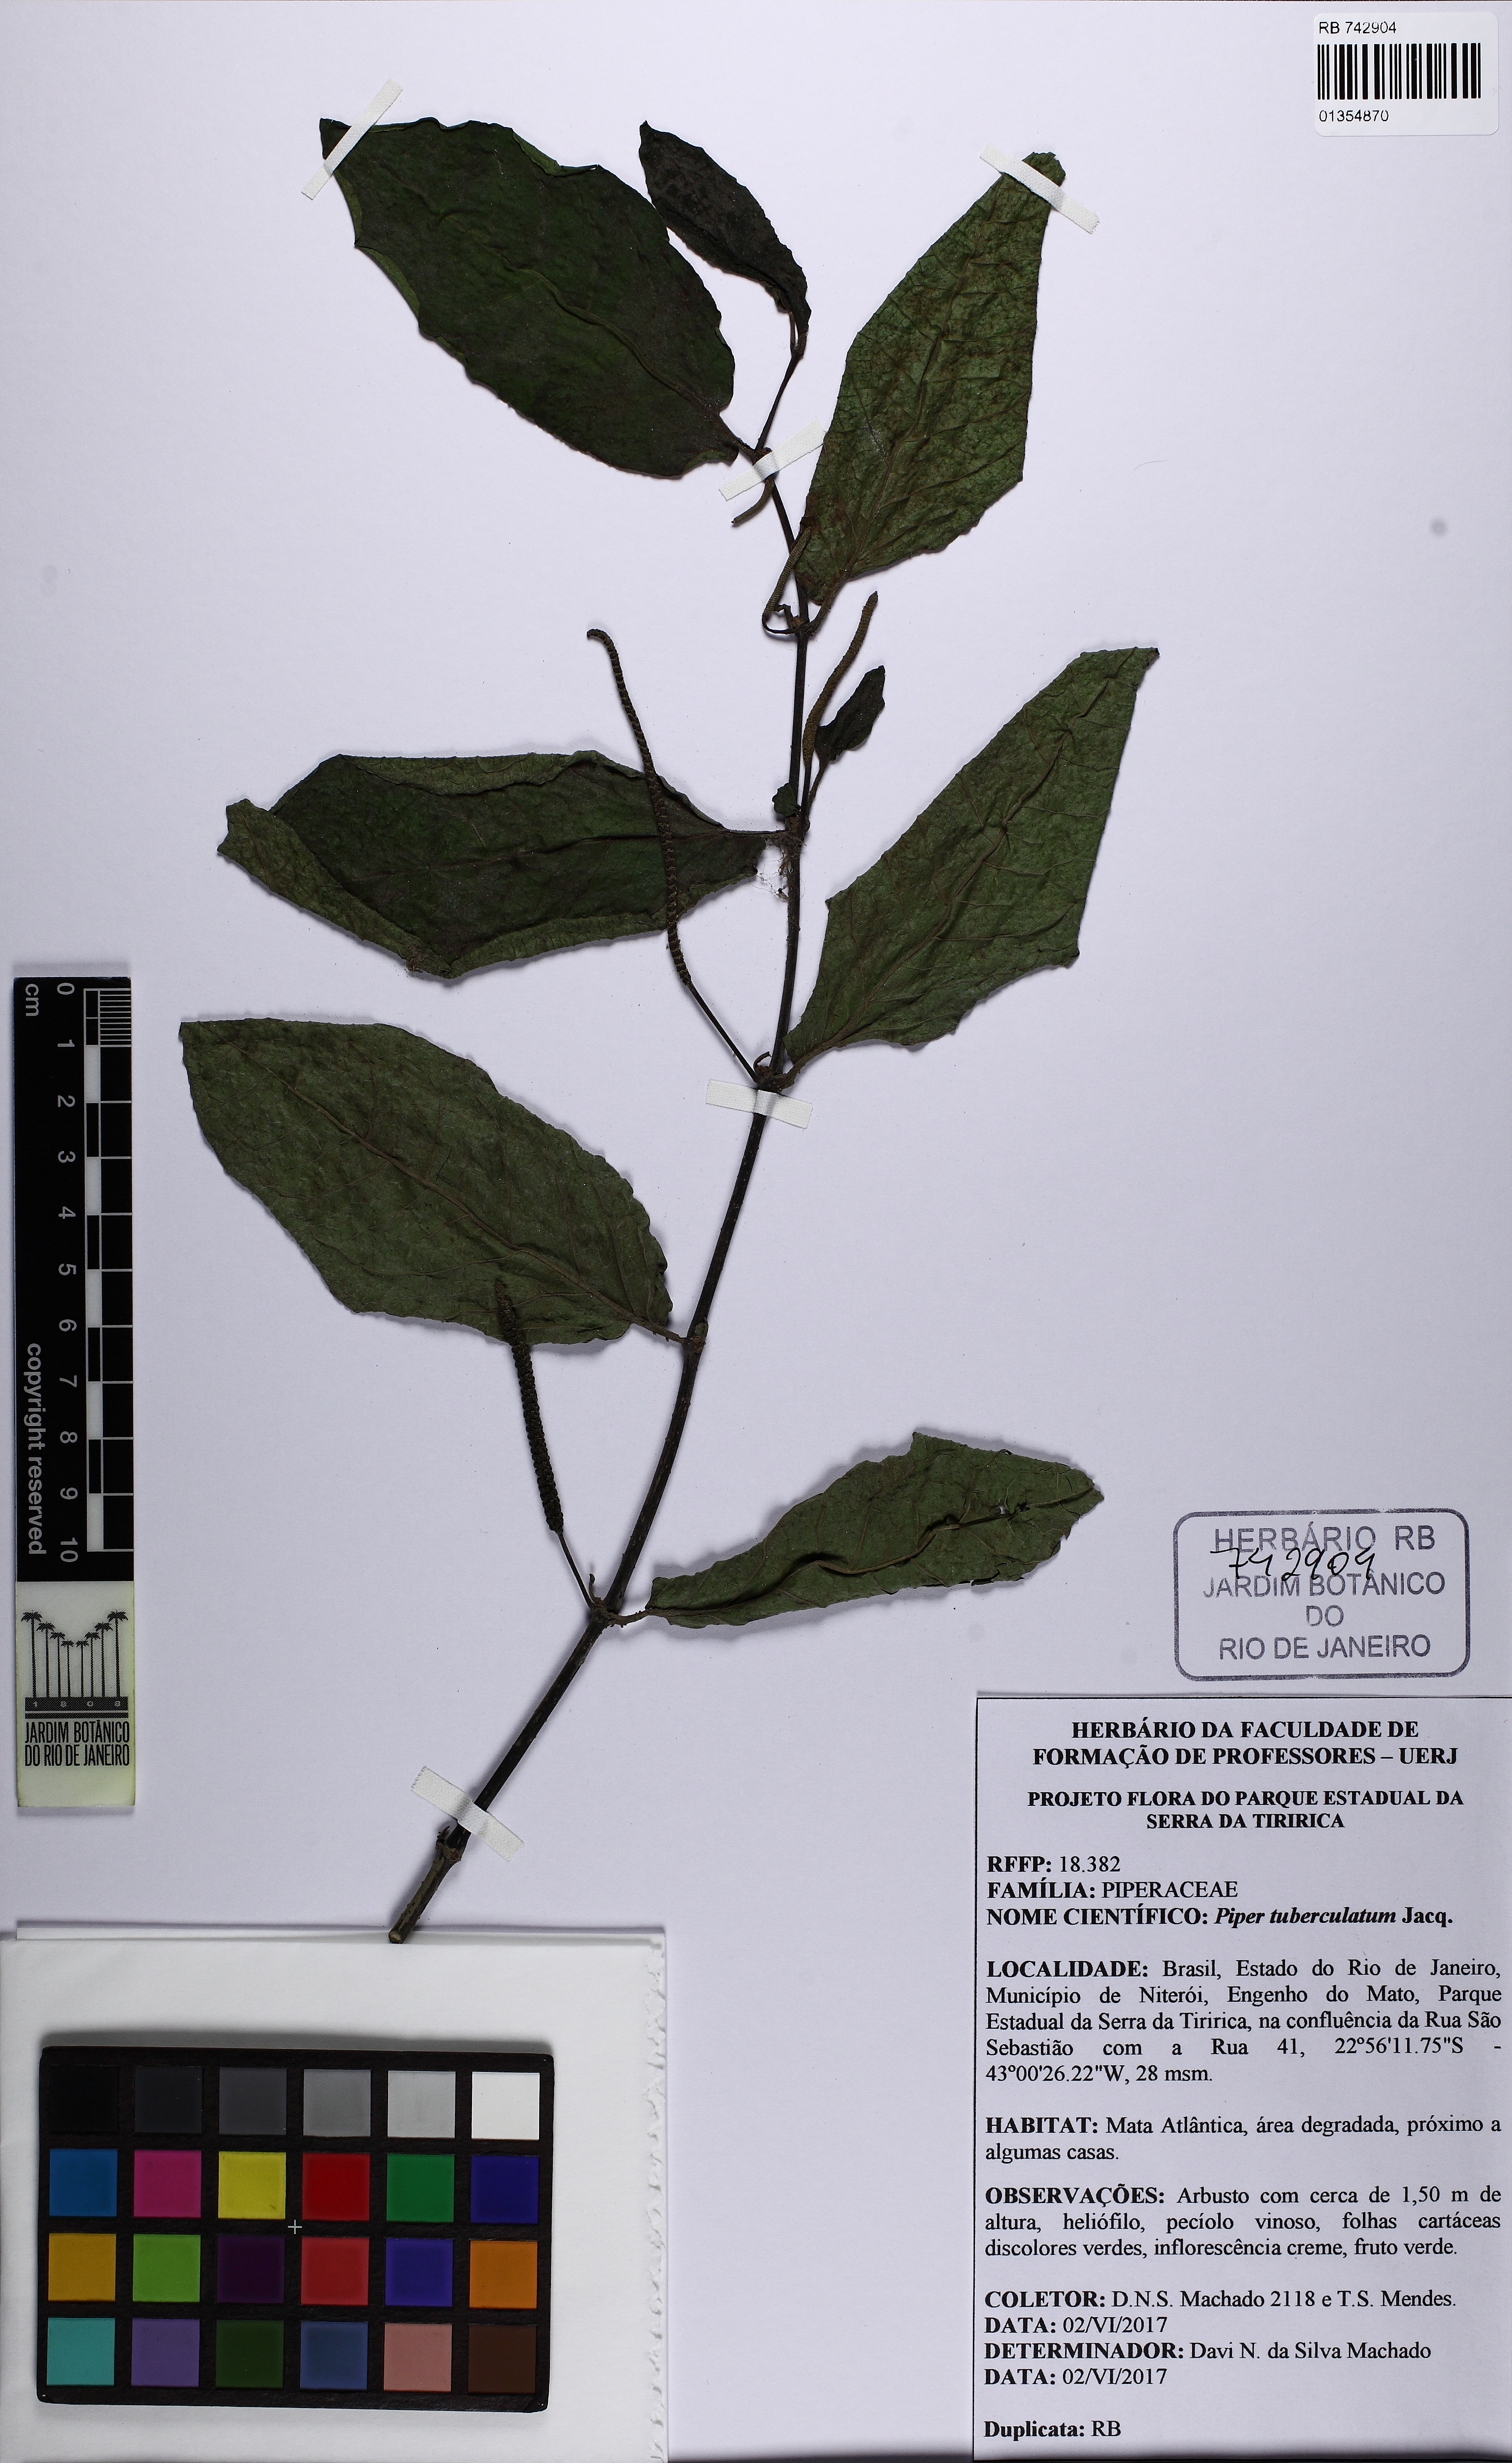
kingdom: Plantae
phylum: Tracheophyta
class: Magnoliopsida
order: Piperales
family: Piperaceae
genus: Piper
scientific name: Piper tuberculatum
